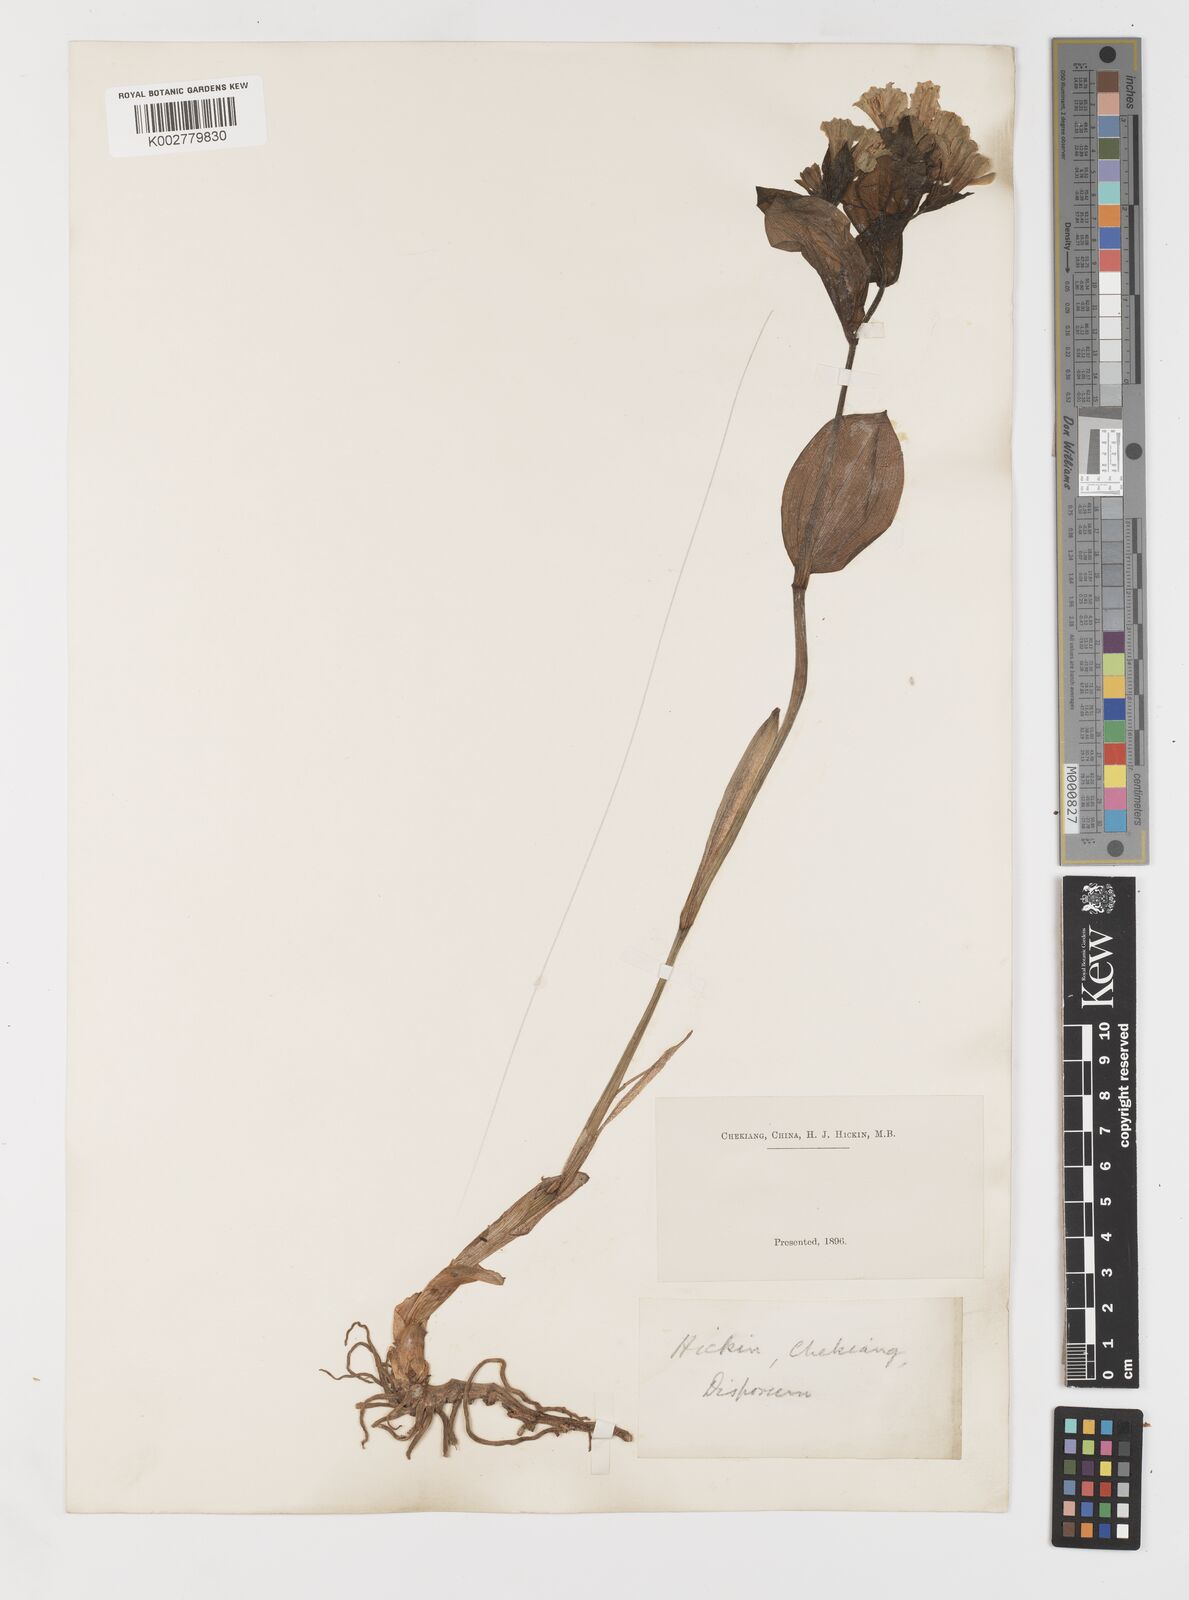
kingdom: Plantae
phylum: Tracheophyta
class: Liliopsida
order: Liliales
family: Colchicaceae
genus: Disporum
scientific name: Disporum sessile
